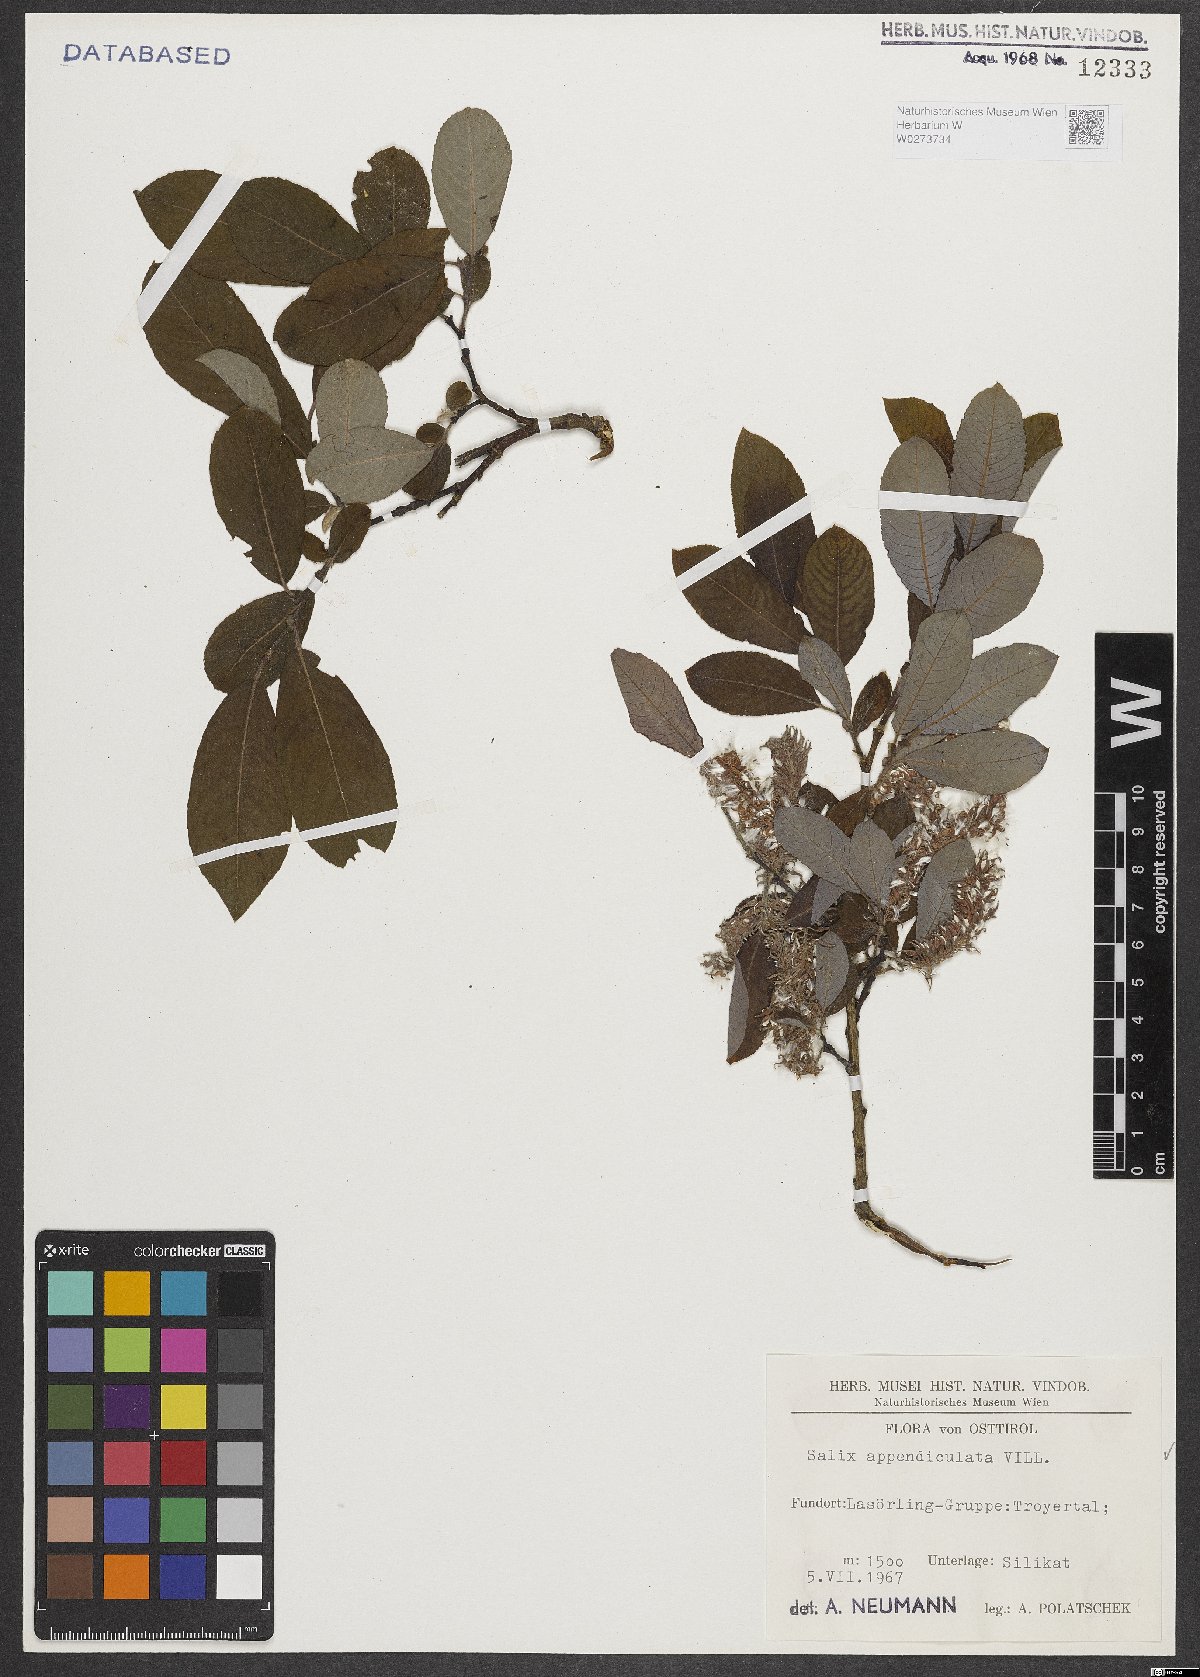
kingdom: Plantae
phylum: Tracheophyta
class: Magnoliopsida
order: Malpighiales
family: Salicaceae
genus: Salix
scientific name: Salix appendiculata
